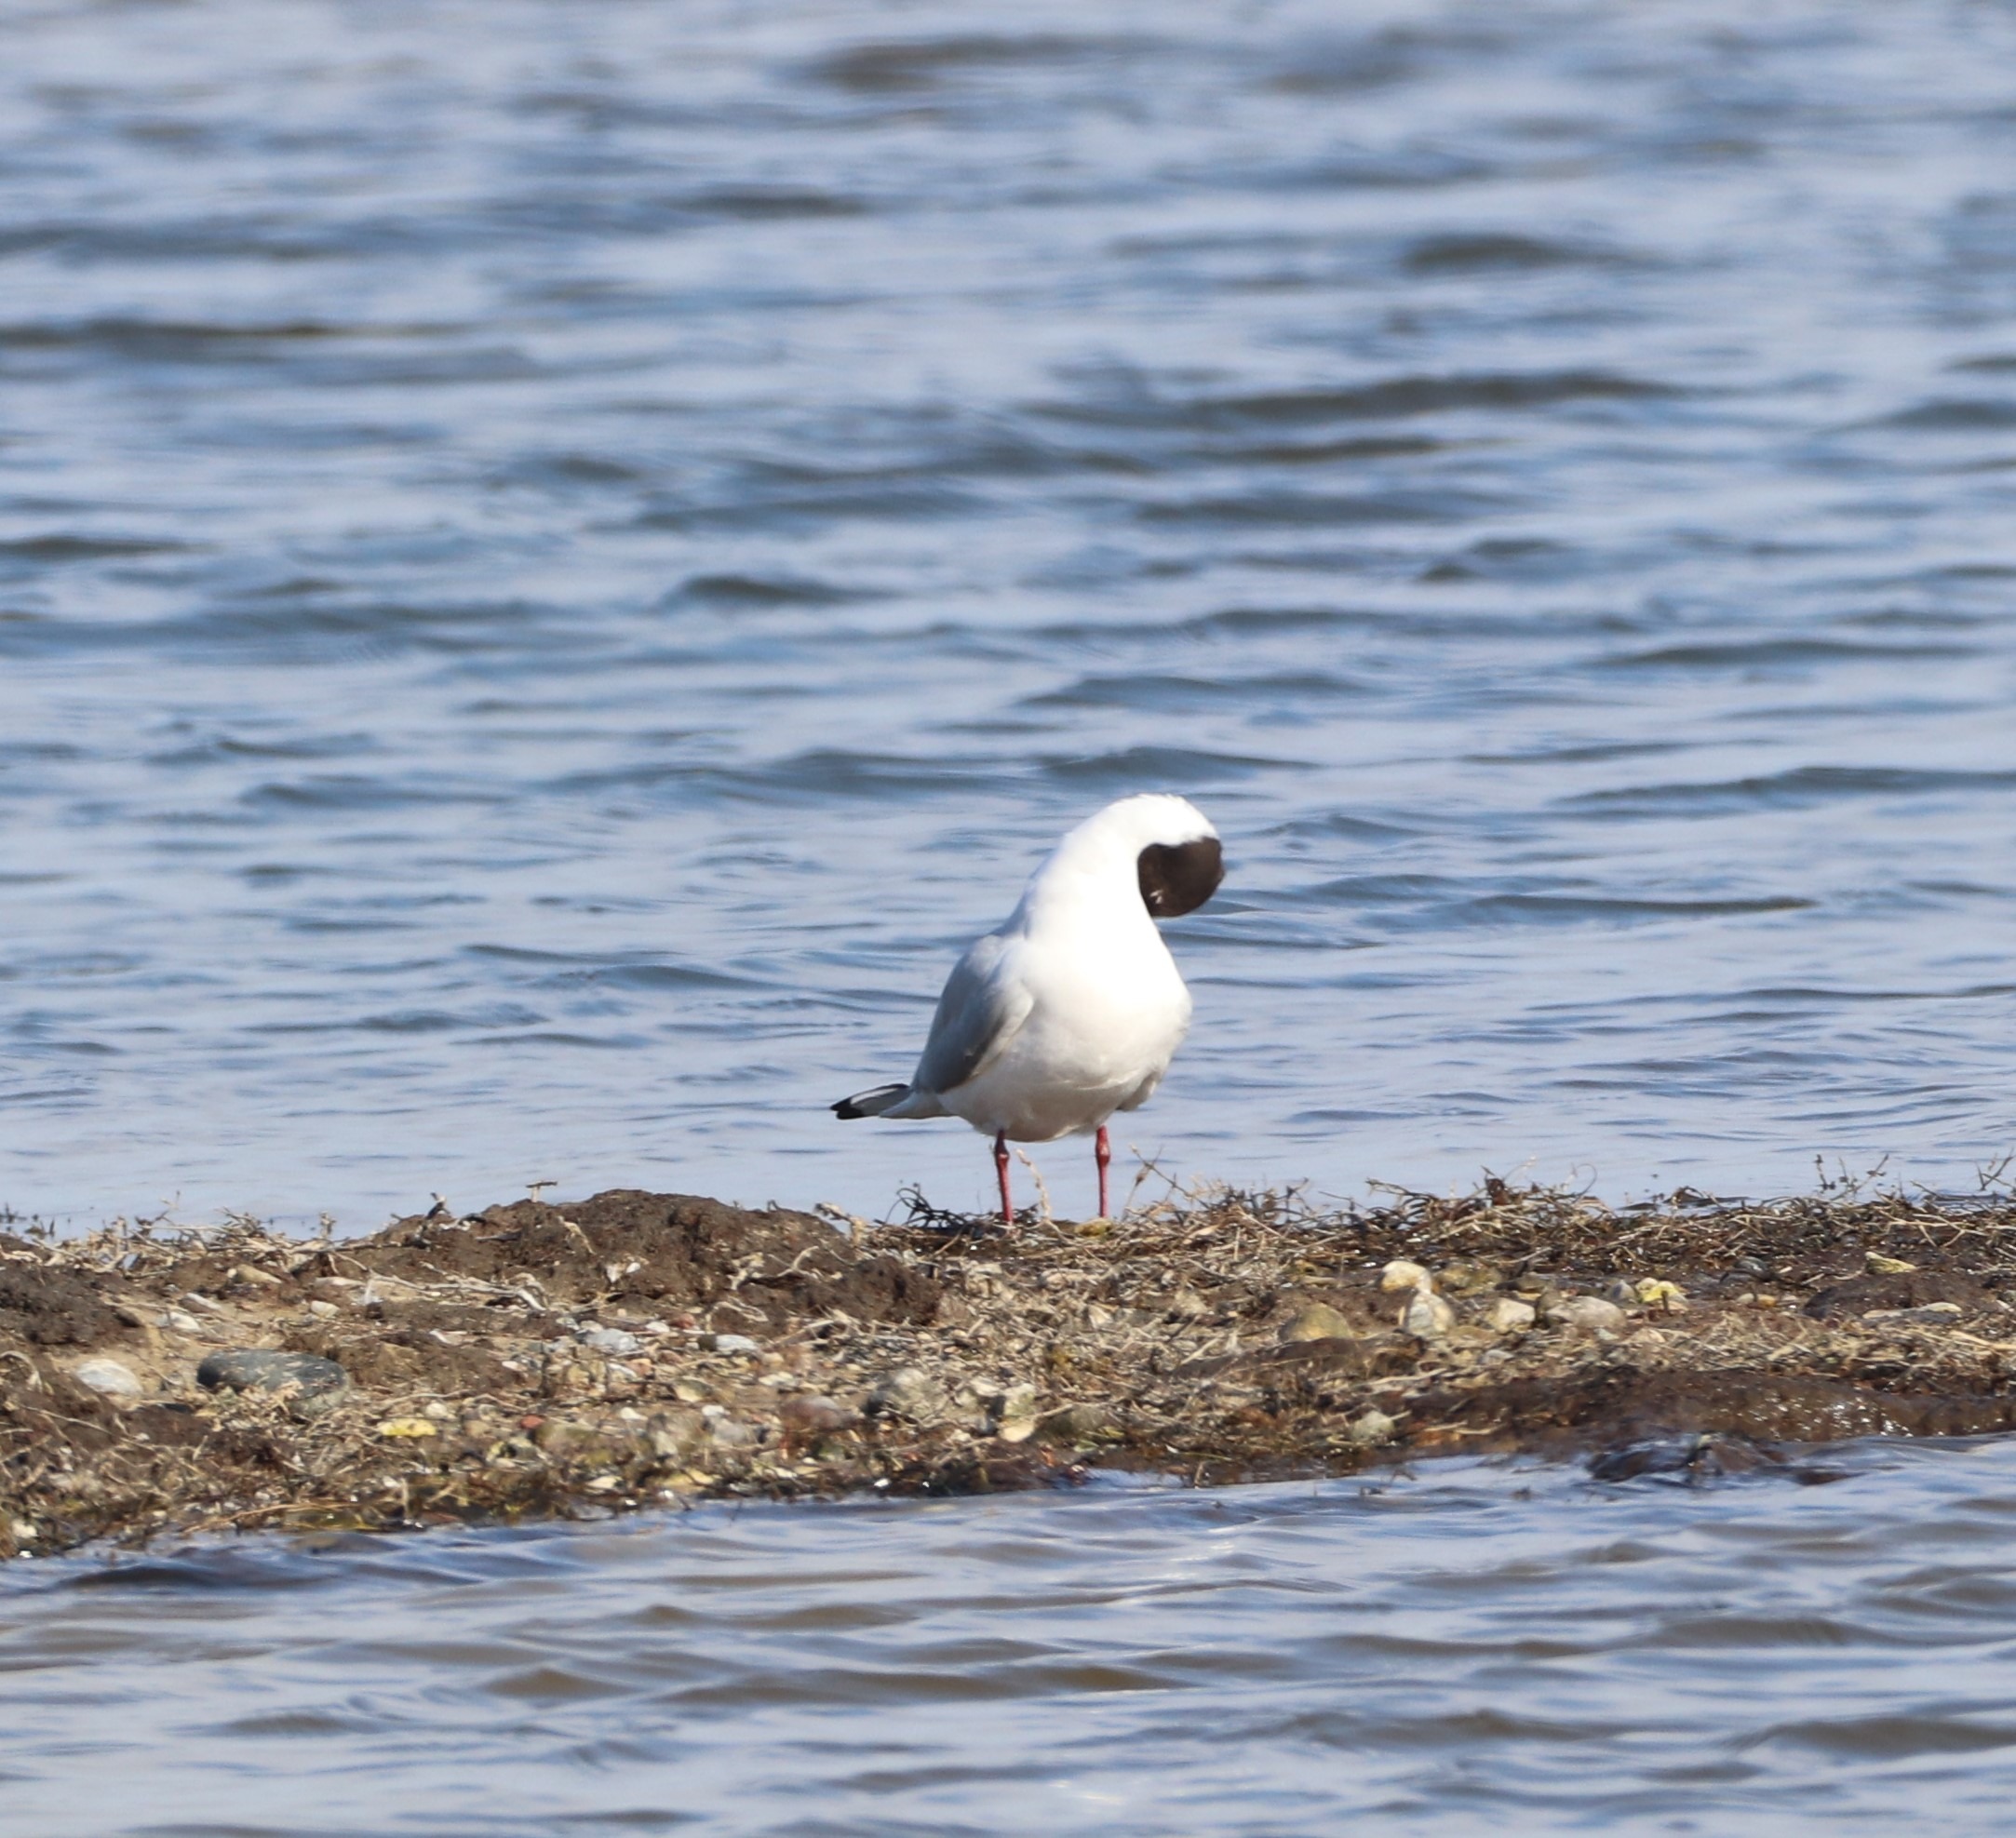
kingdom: Animalia
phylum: Chordata
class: Aves
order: Charadriiformes
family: Laridae
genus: Chroicocephalus
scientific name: Chroicocephalus ridibundus
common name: Hættemåge
